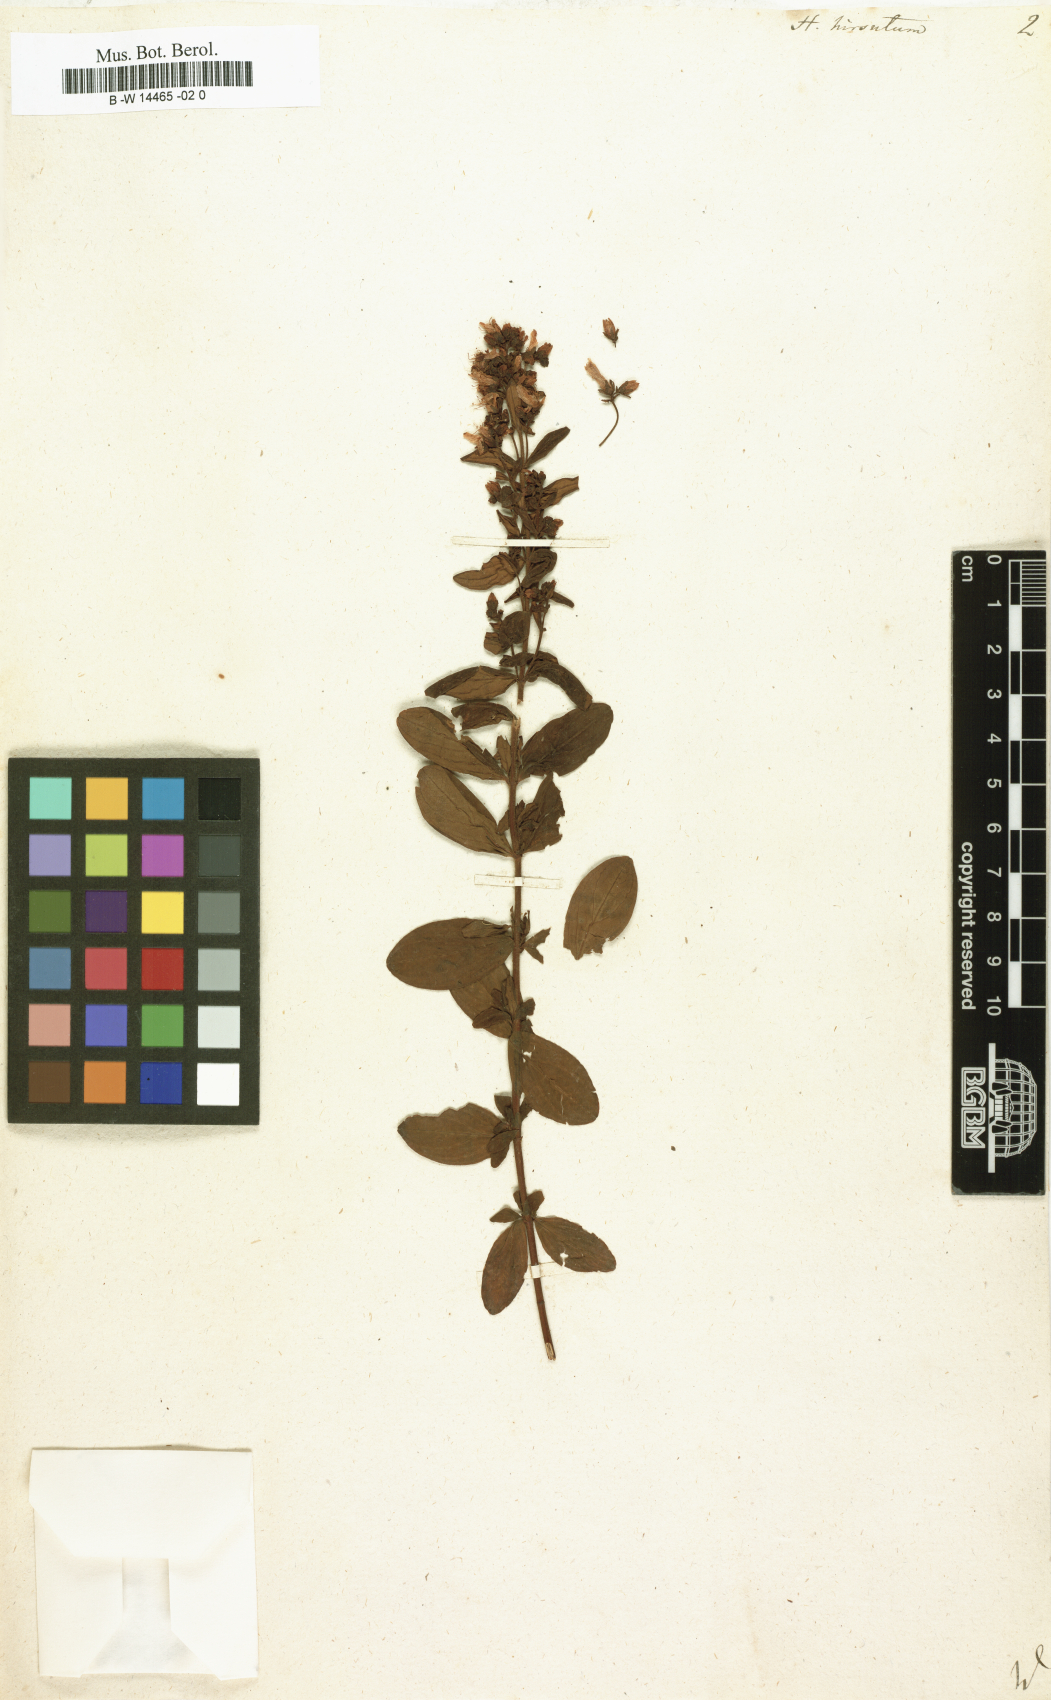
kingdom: Plantae
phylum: Tracheophyta
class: Magnoliopsida
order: Malpighiales
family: Hypericaceae
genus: Hypericum
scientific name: Hypericum hirsutum
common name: Hairy st. john's-wort
